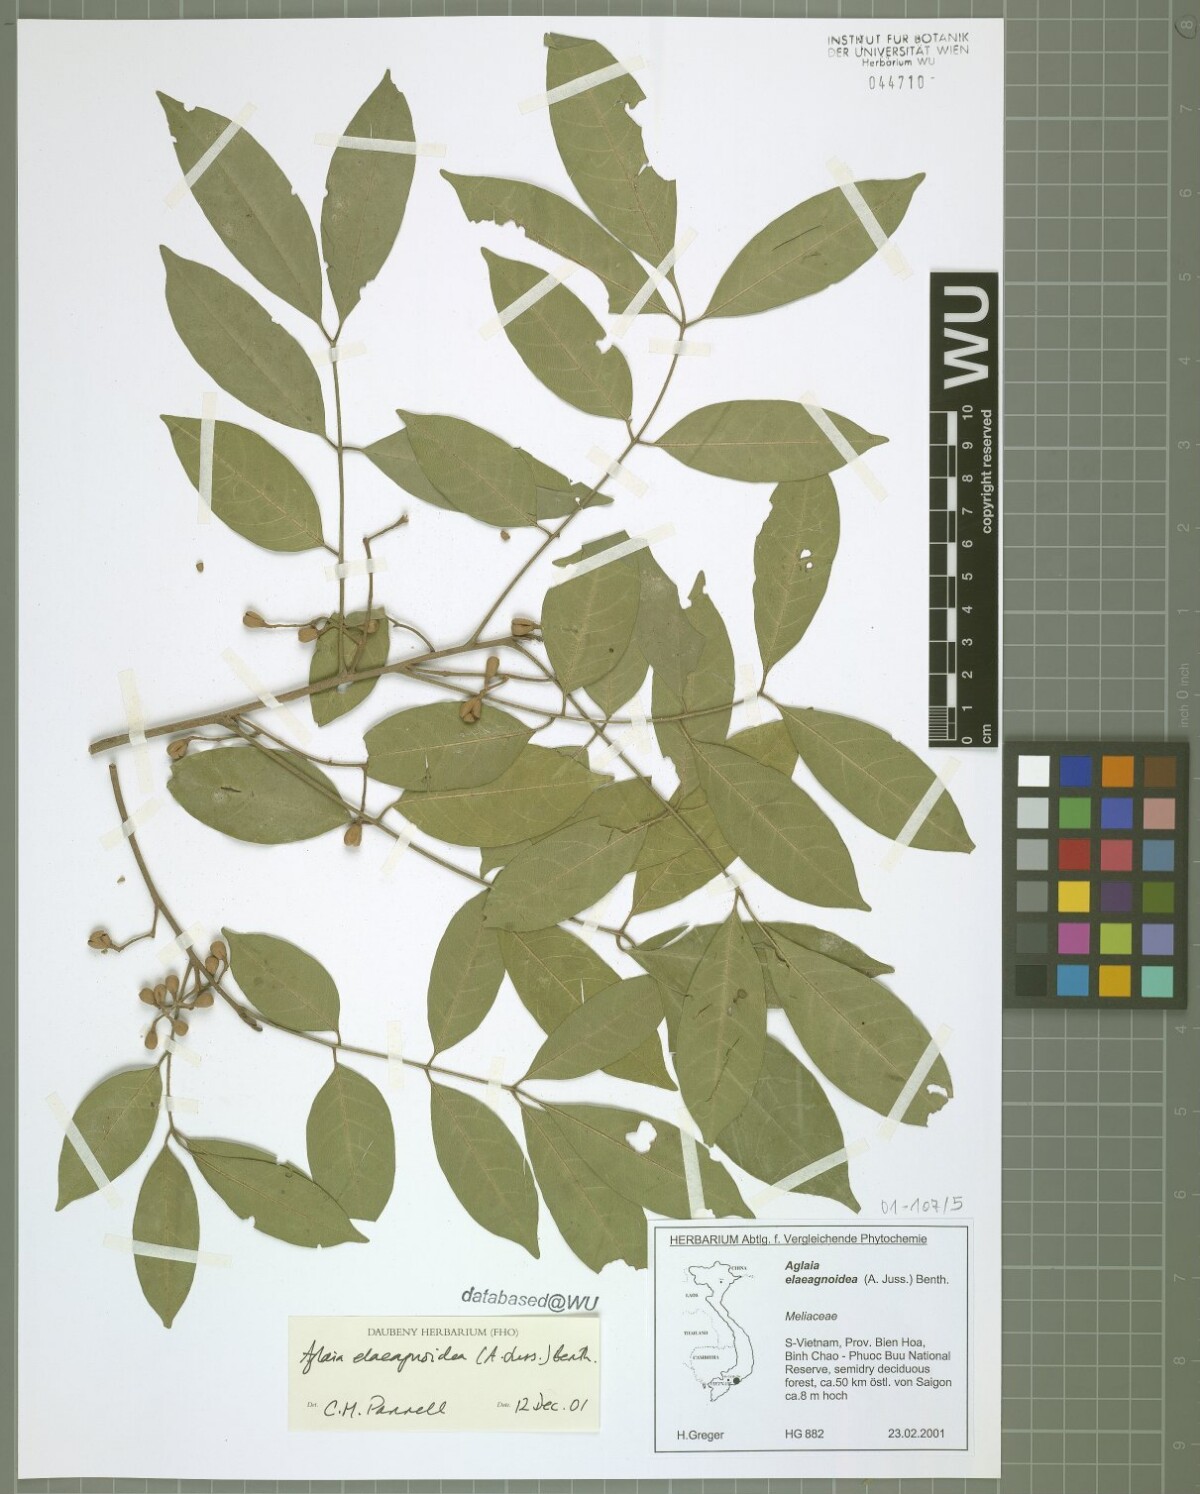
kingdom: Plantae
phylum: Tracheophyta
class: Magnoliopsida
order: Sapindales
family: Meliaceae
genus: Aglaia
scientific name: Aglaia elaeagnoidea
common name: Droopyleaf
